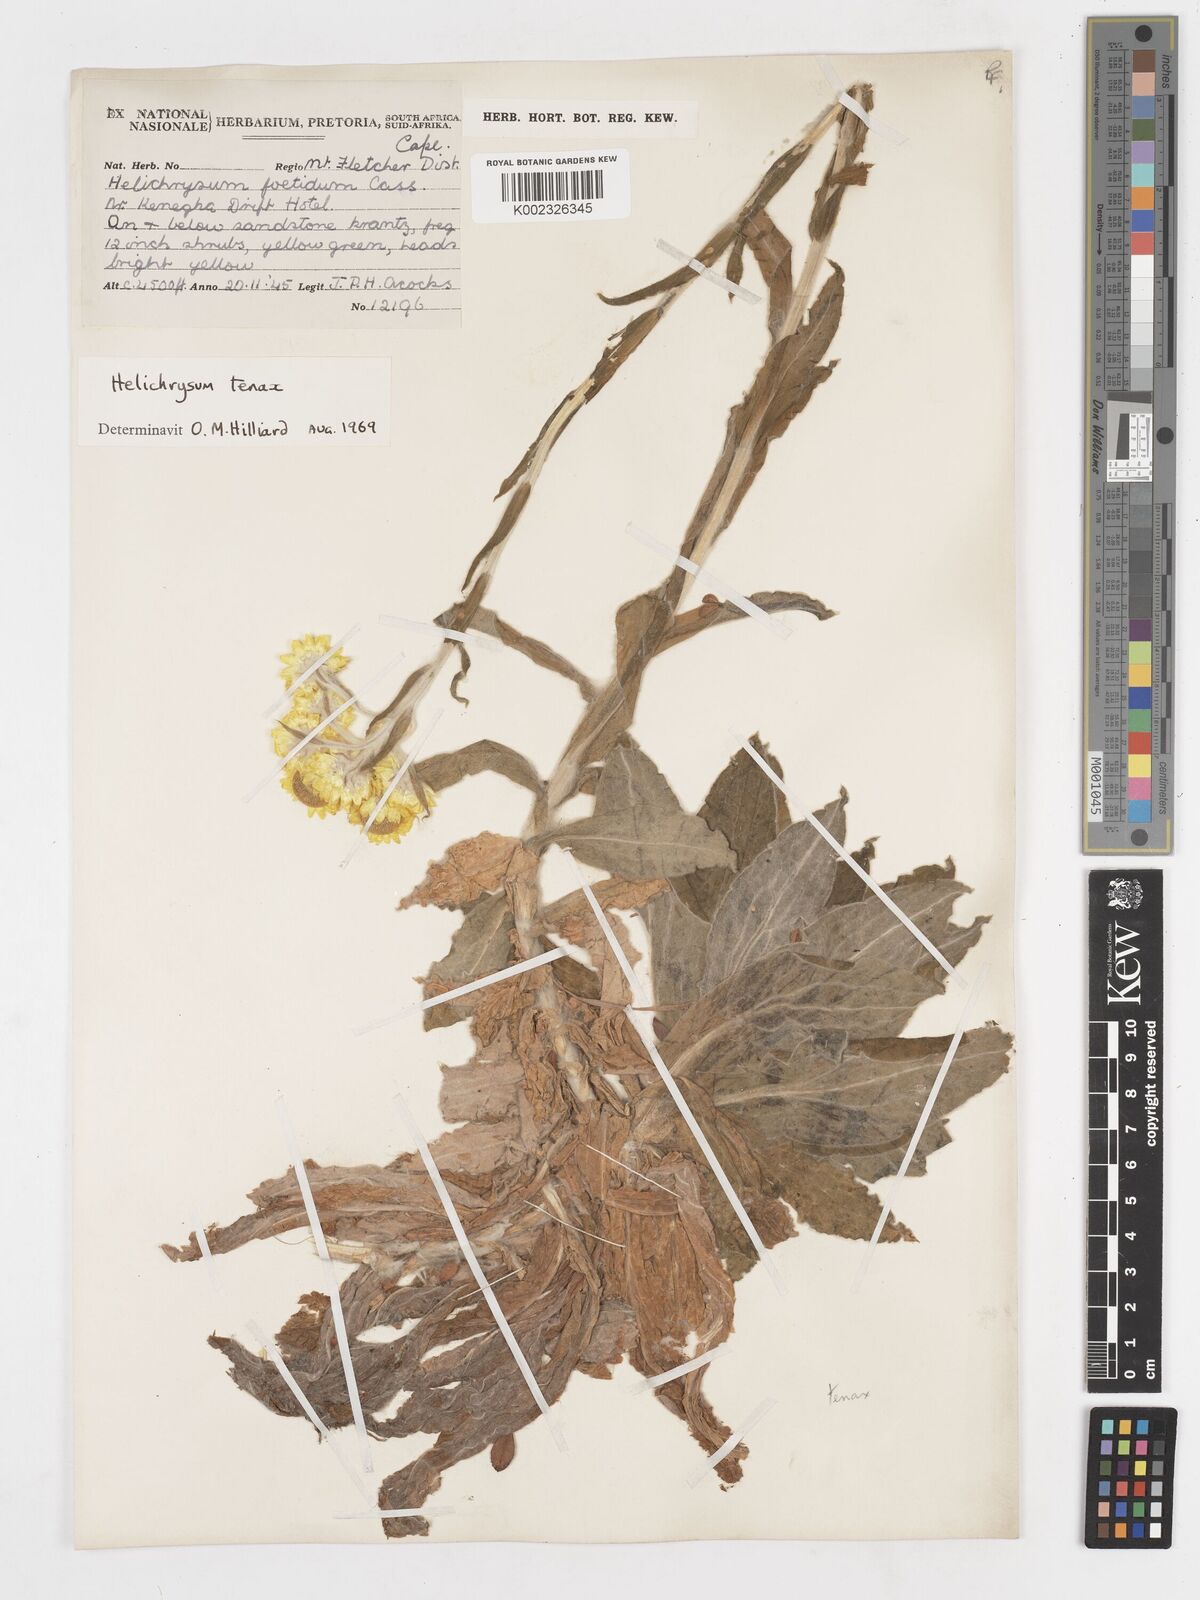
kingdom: Plantae
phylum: Tracheophyta
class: Magnoliopsida
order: Asterales
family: Asteraceae
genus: Helichrysum
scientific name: Helichrysum tenax
